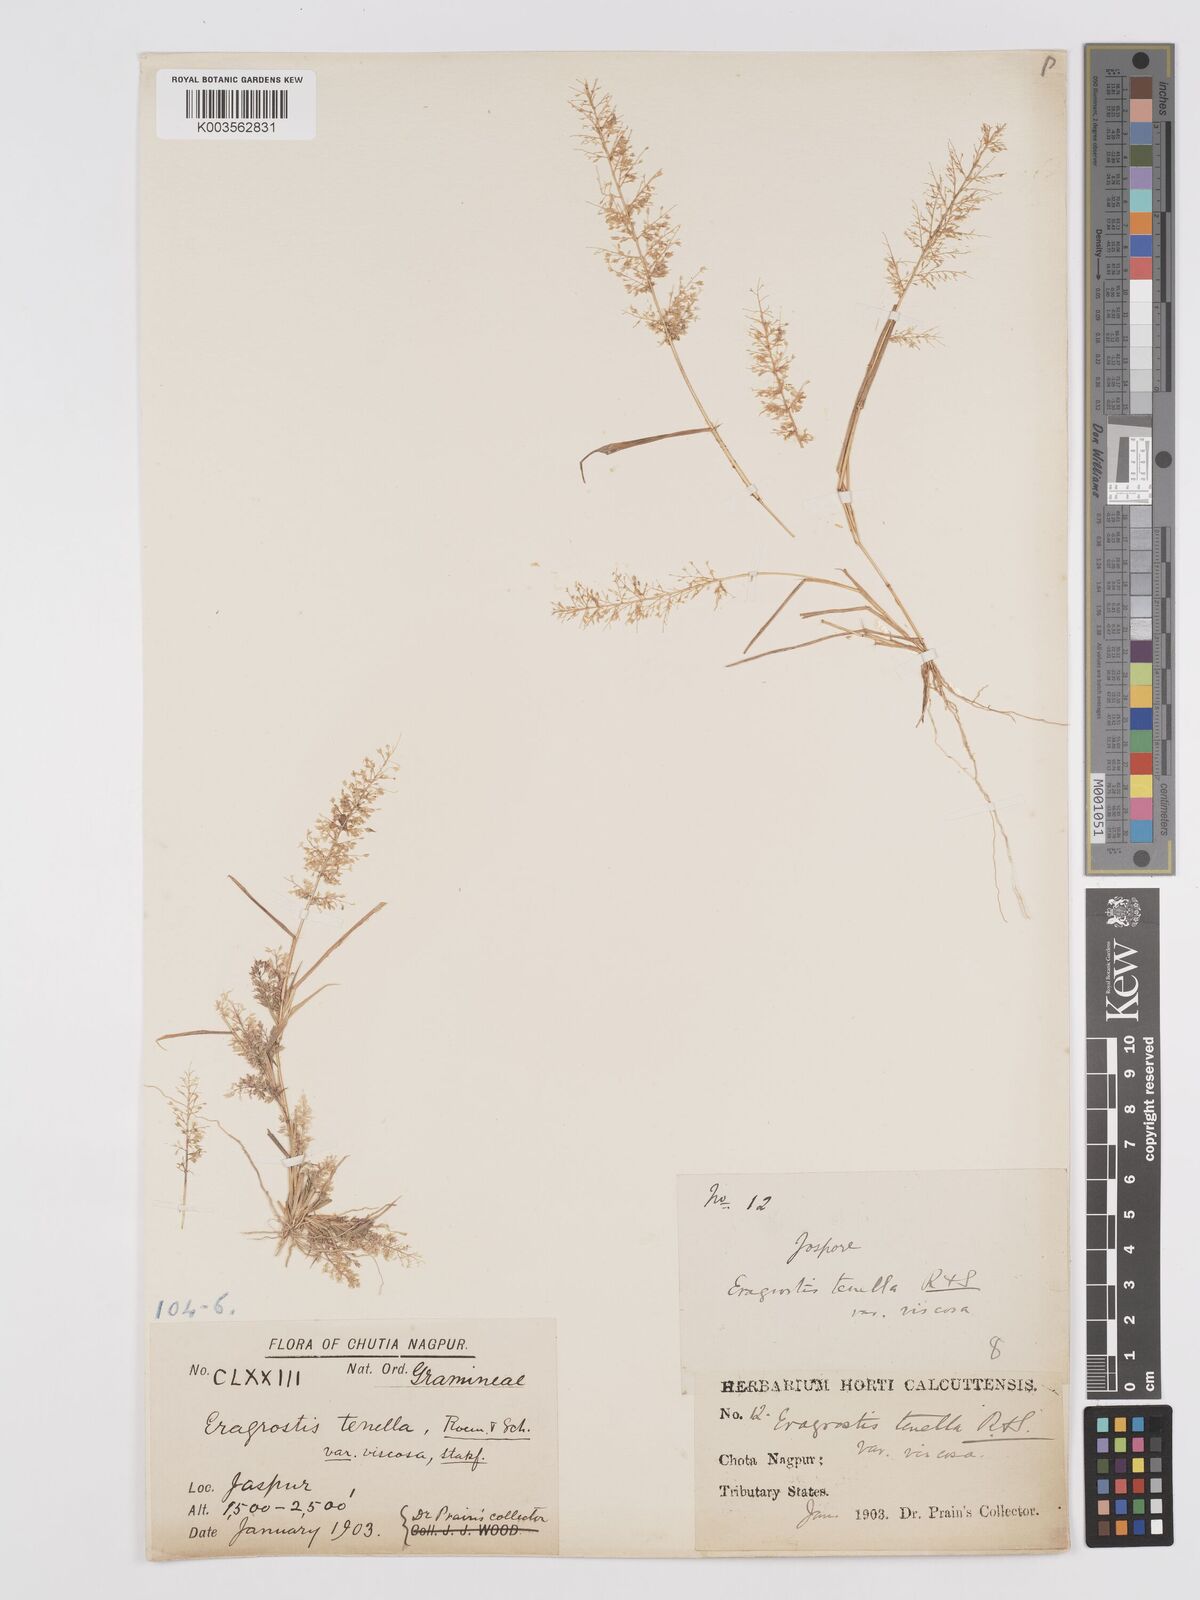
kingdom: Plantae
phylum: Tracheophyta
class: Liliopsida
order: Poales
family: Poaceae
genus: Eragrostis
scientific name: Eragrostis viscosa
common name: Sticky love grass
